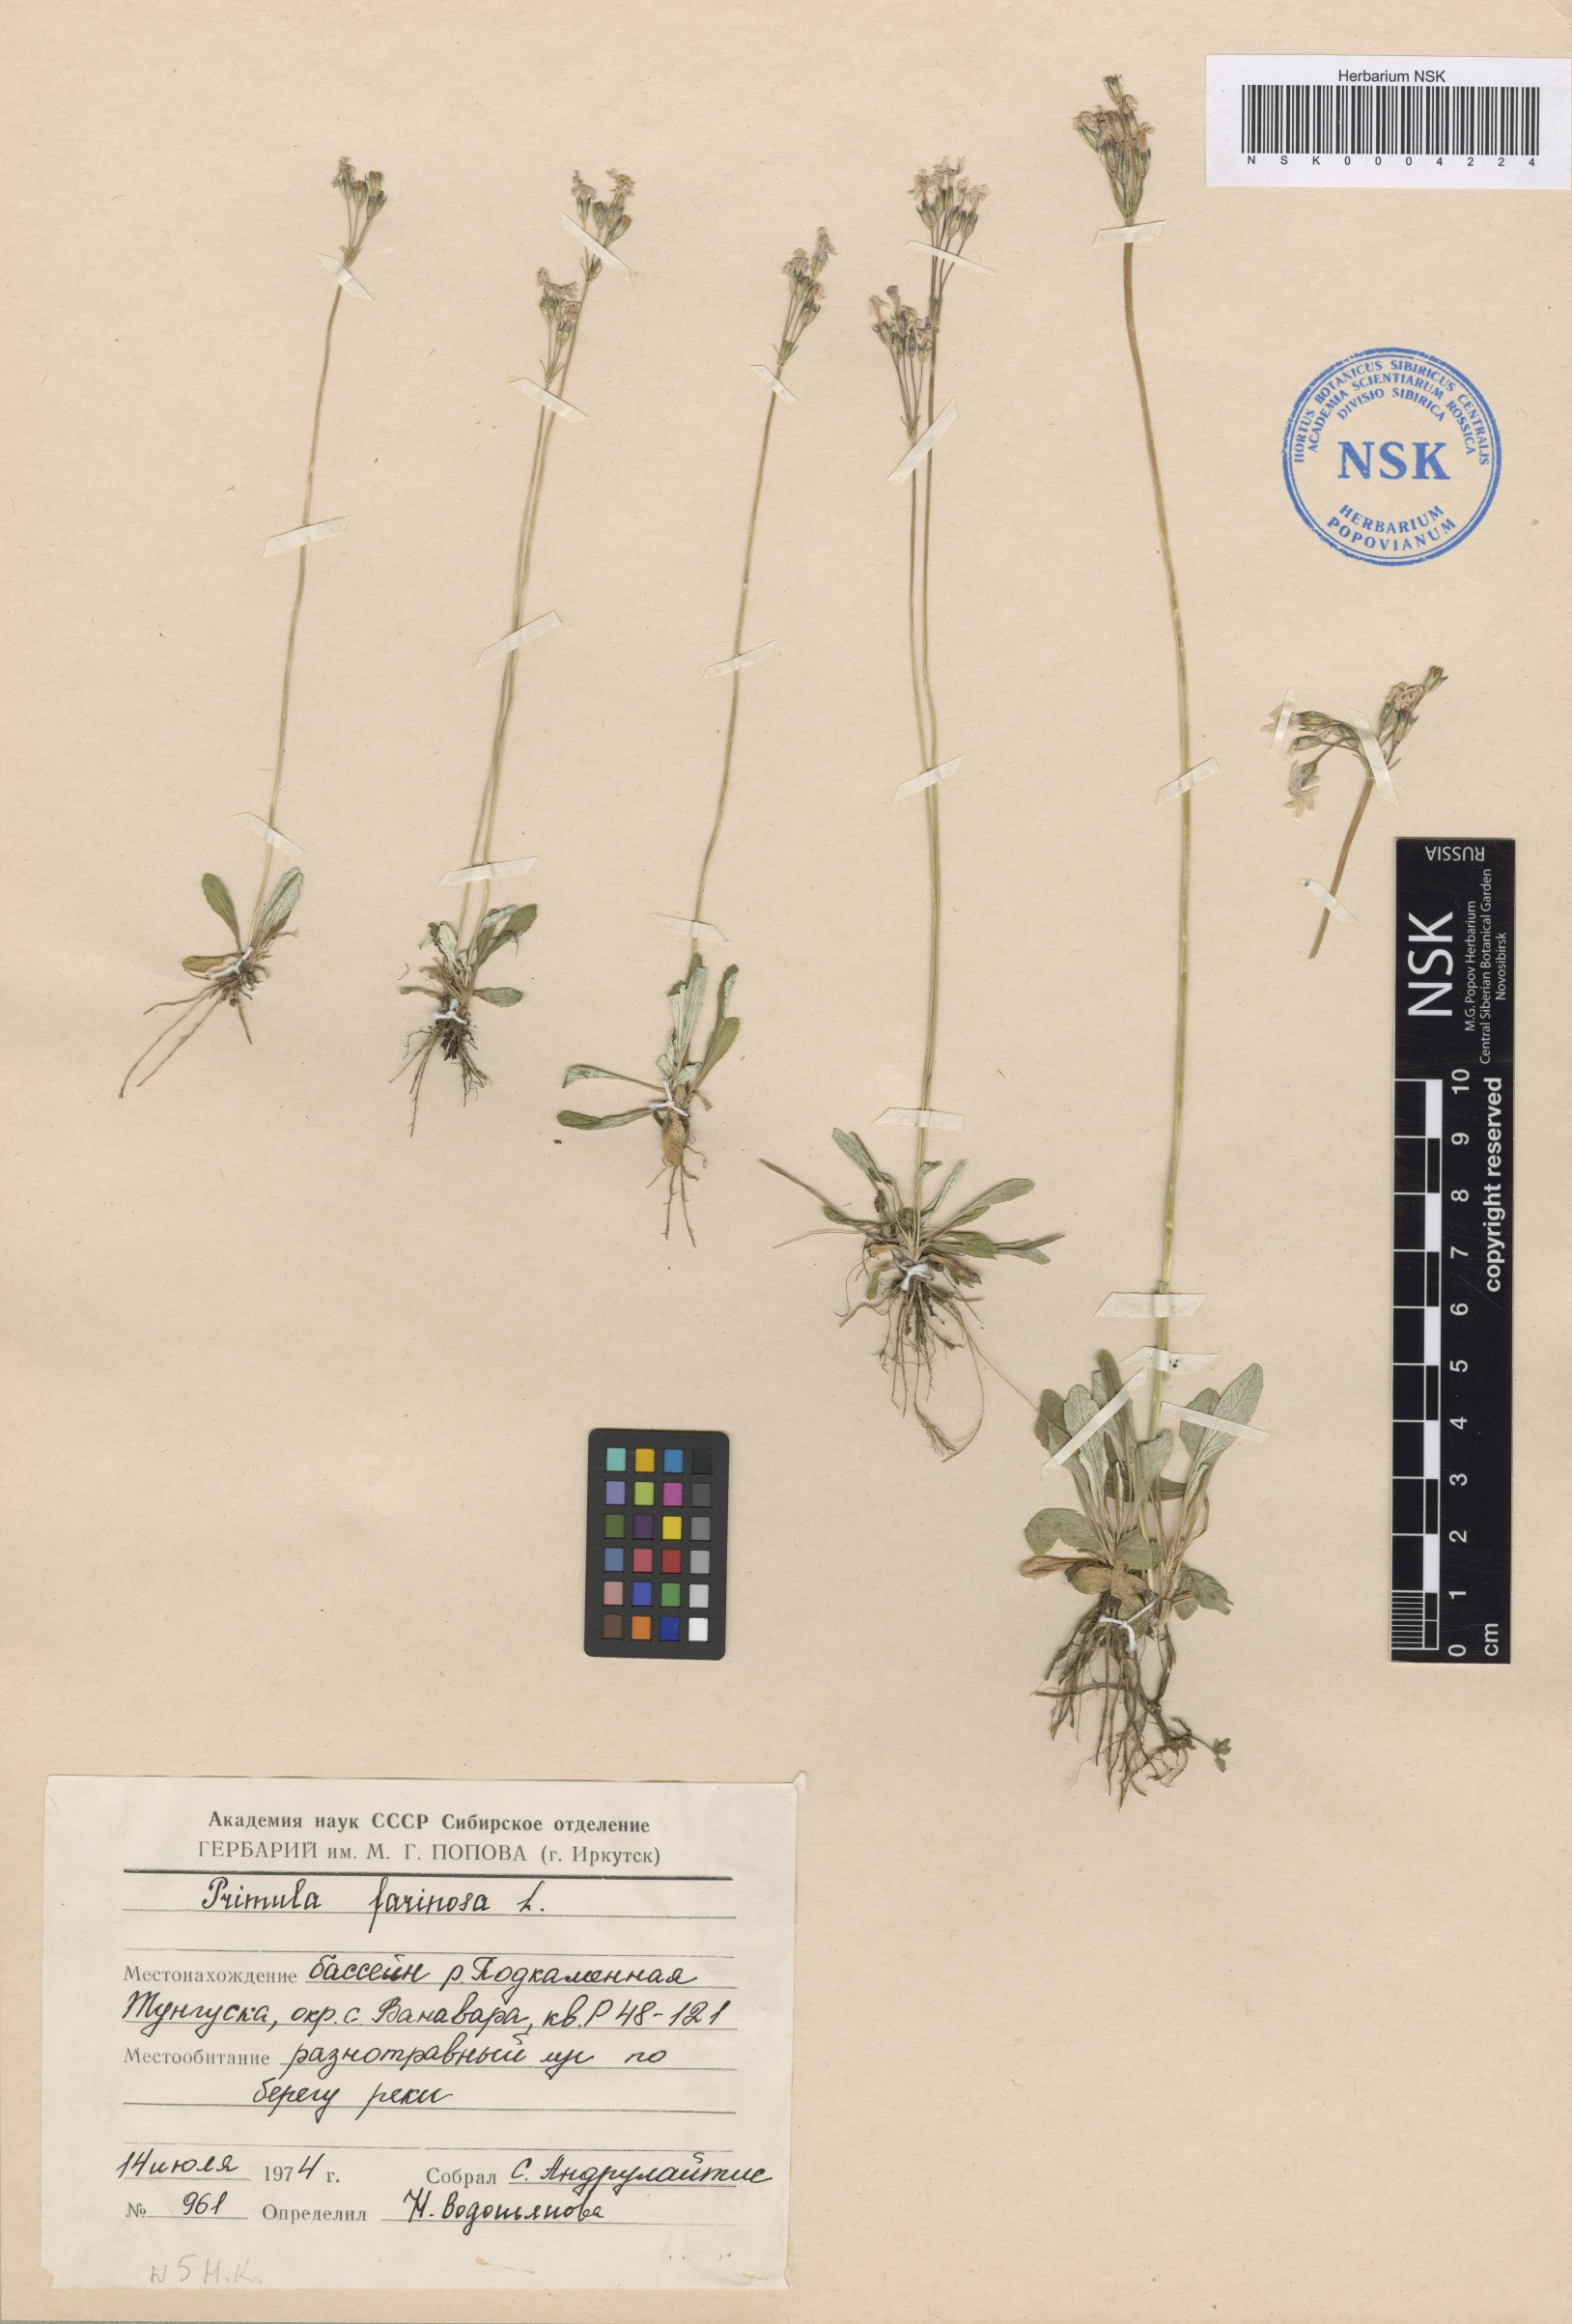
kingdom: Plantae
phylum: Tracheophyta
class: Magnoliopsida
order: Ericales
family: Primulaceae
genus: Primula
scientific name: Primula farinosa
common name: Bird's-eye primrose
